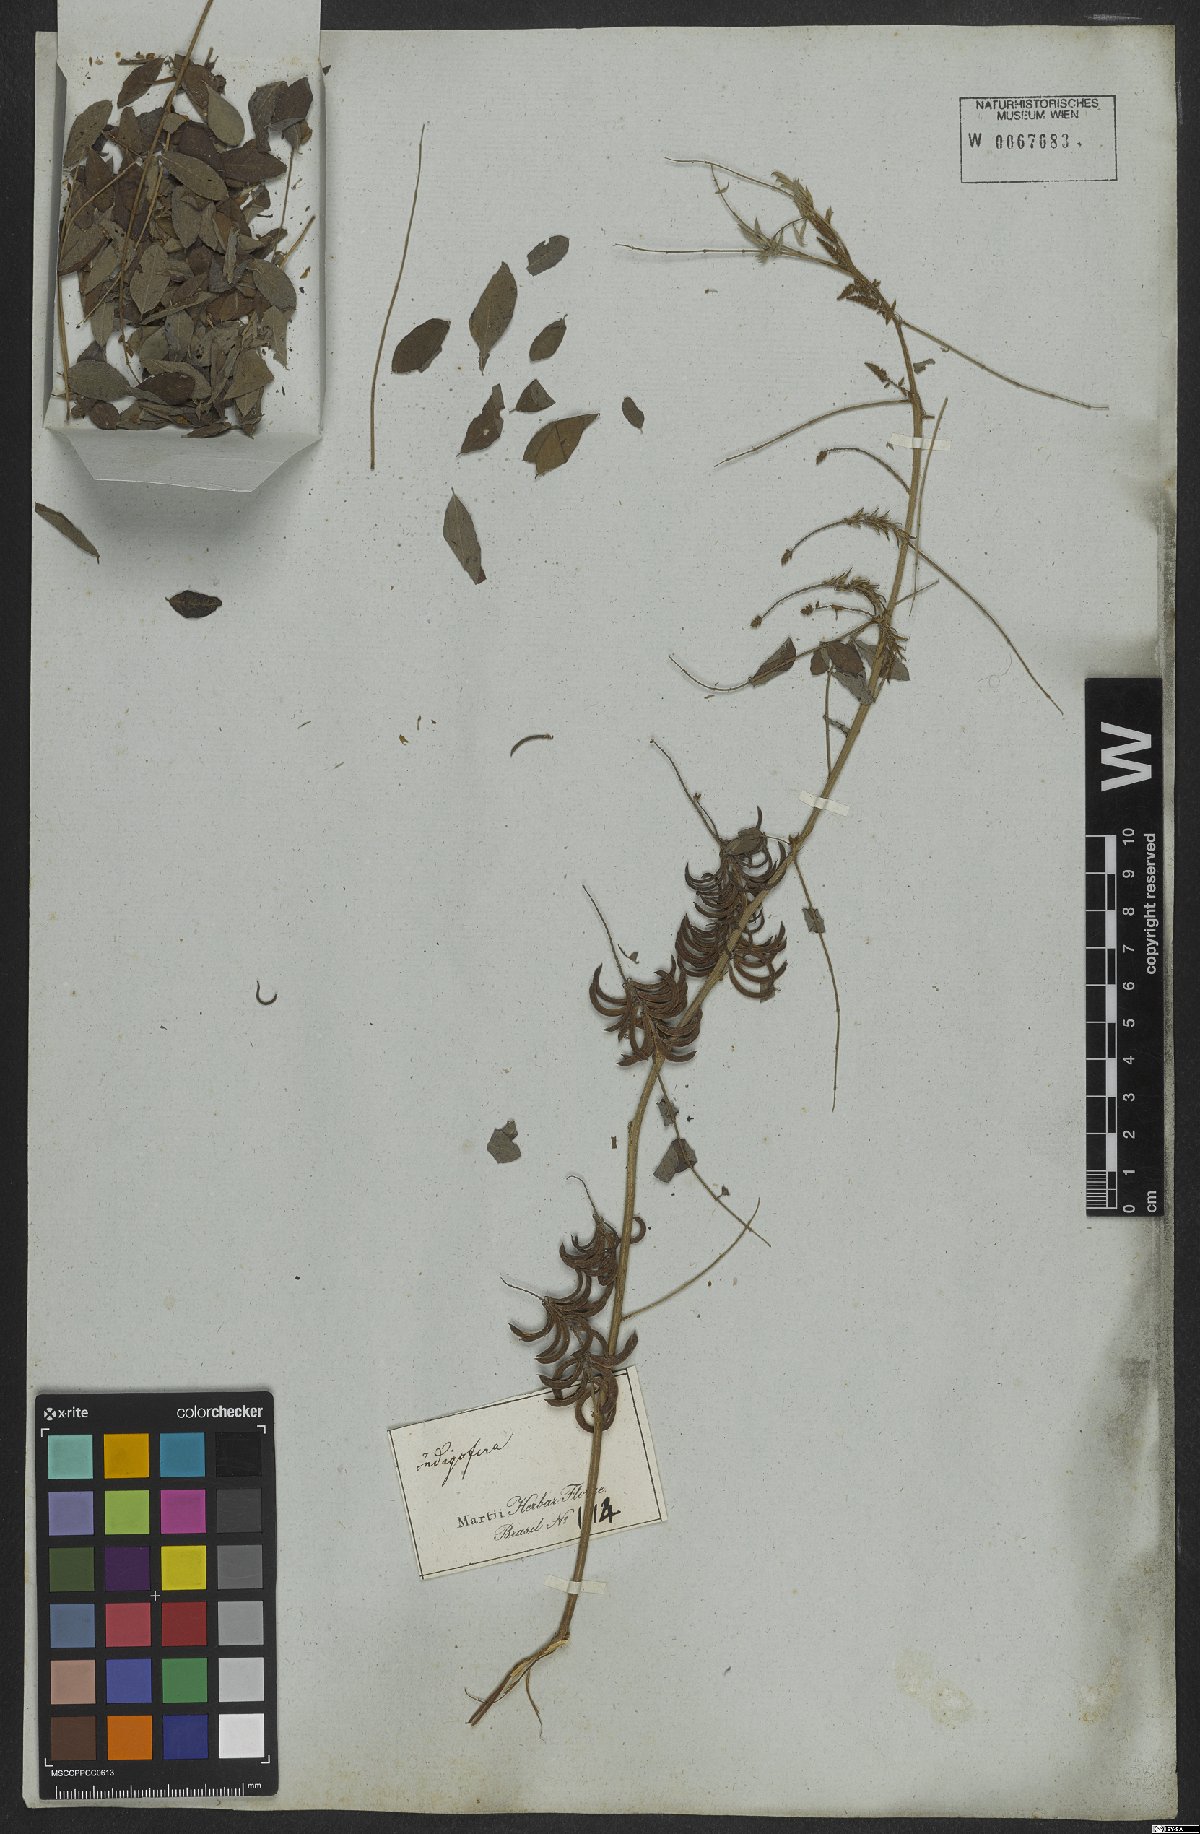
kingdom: Plantae
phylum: Tracheophyta
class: Magnoliopsida
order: Fabales
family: Fabaceae
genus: Indigofera
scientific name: Indigofera suffruticosa
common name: Anil de pasto
